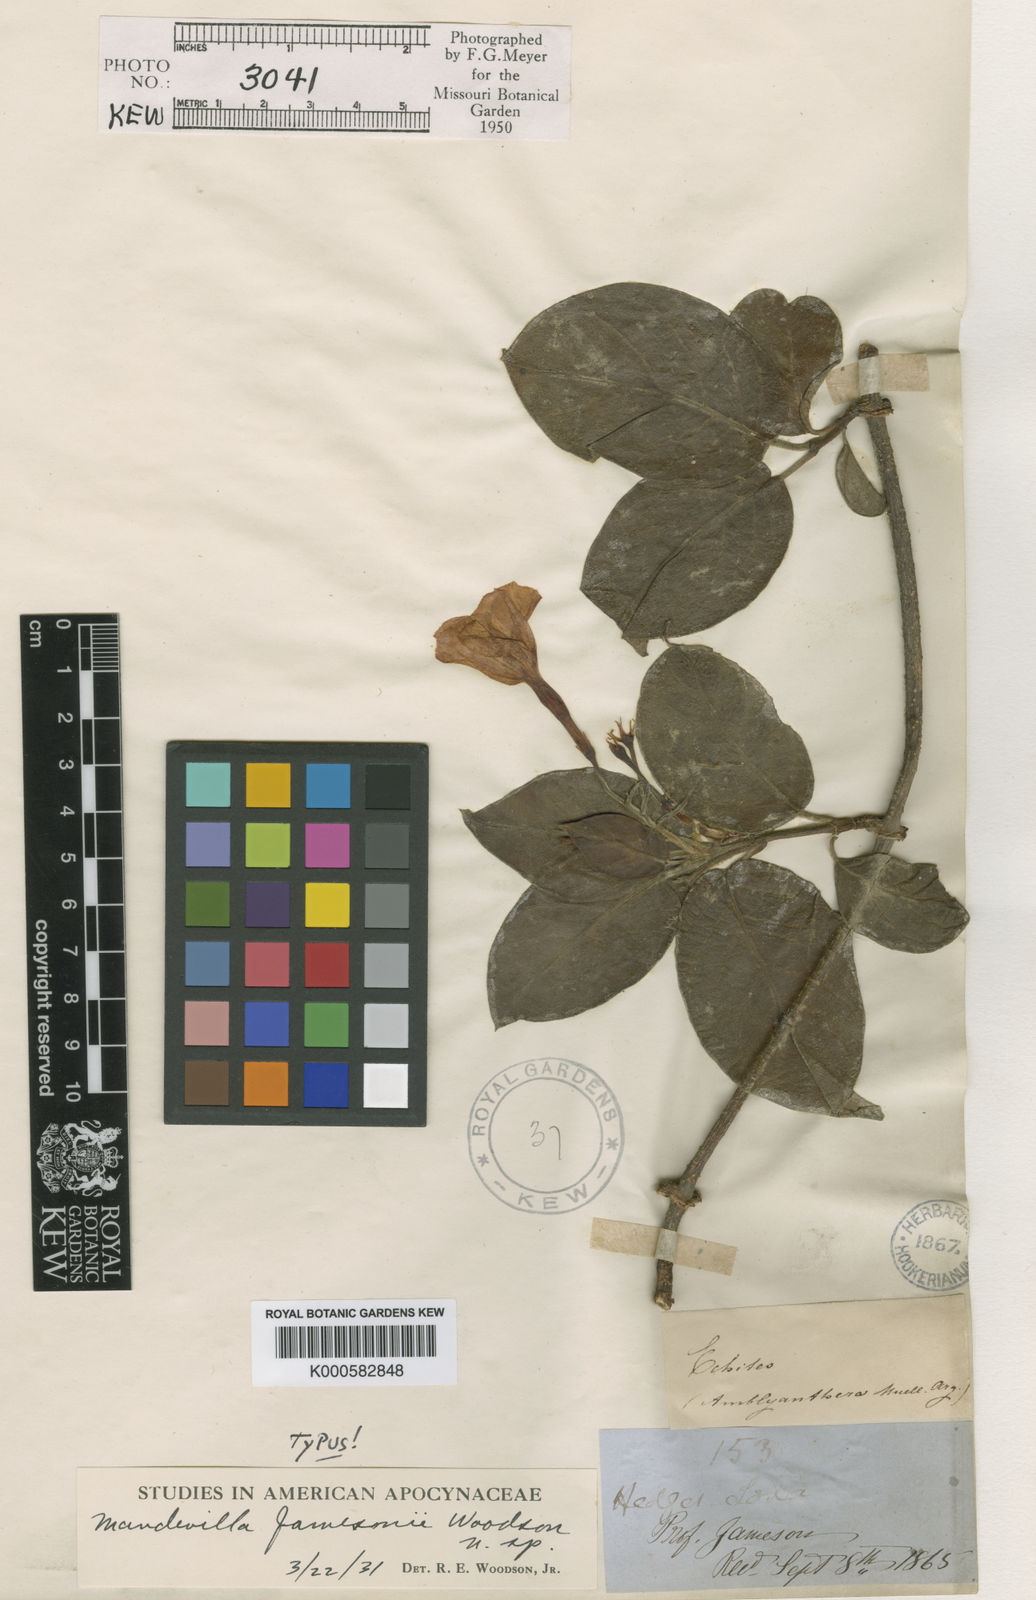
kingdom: Plantae
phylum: Tracheophyta
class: Magnoliopsida
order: Gentianales
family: Apocynaceae
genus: Mandevilla
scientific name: Mandevilla jamesonii
